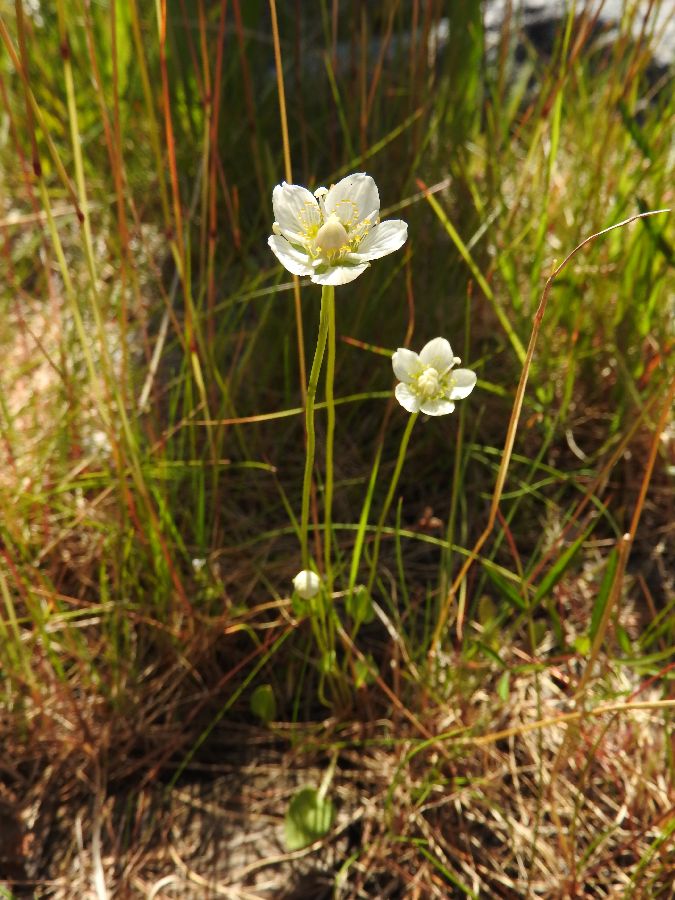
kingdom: Plantae
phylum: Tracheophyta
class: Magnoliopsida
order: Celastrales
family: Parnassiaceae
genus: Parnassia
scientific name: Parnassia palustris
